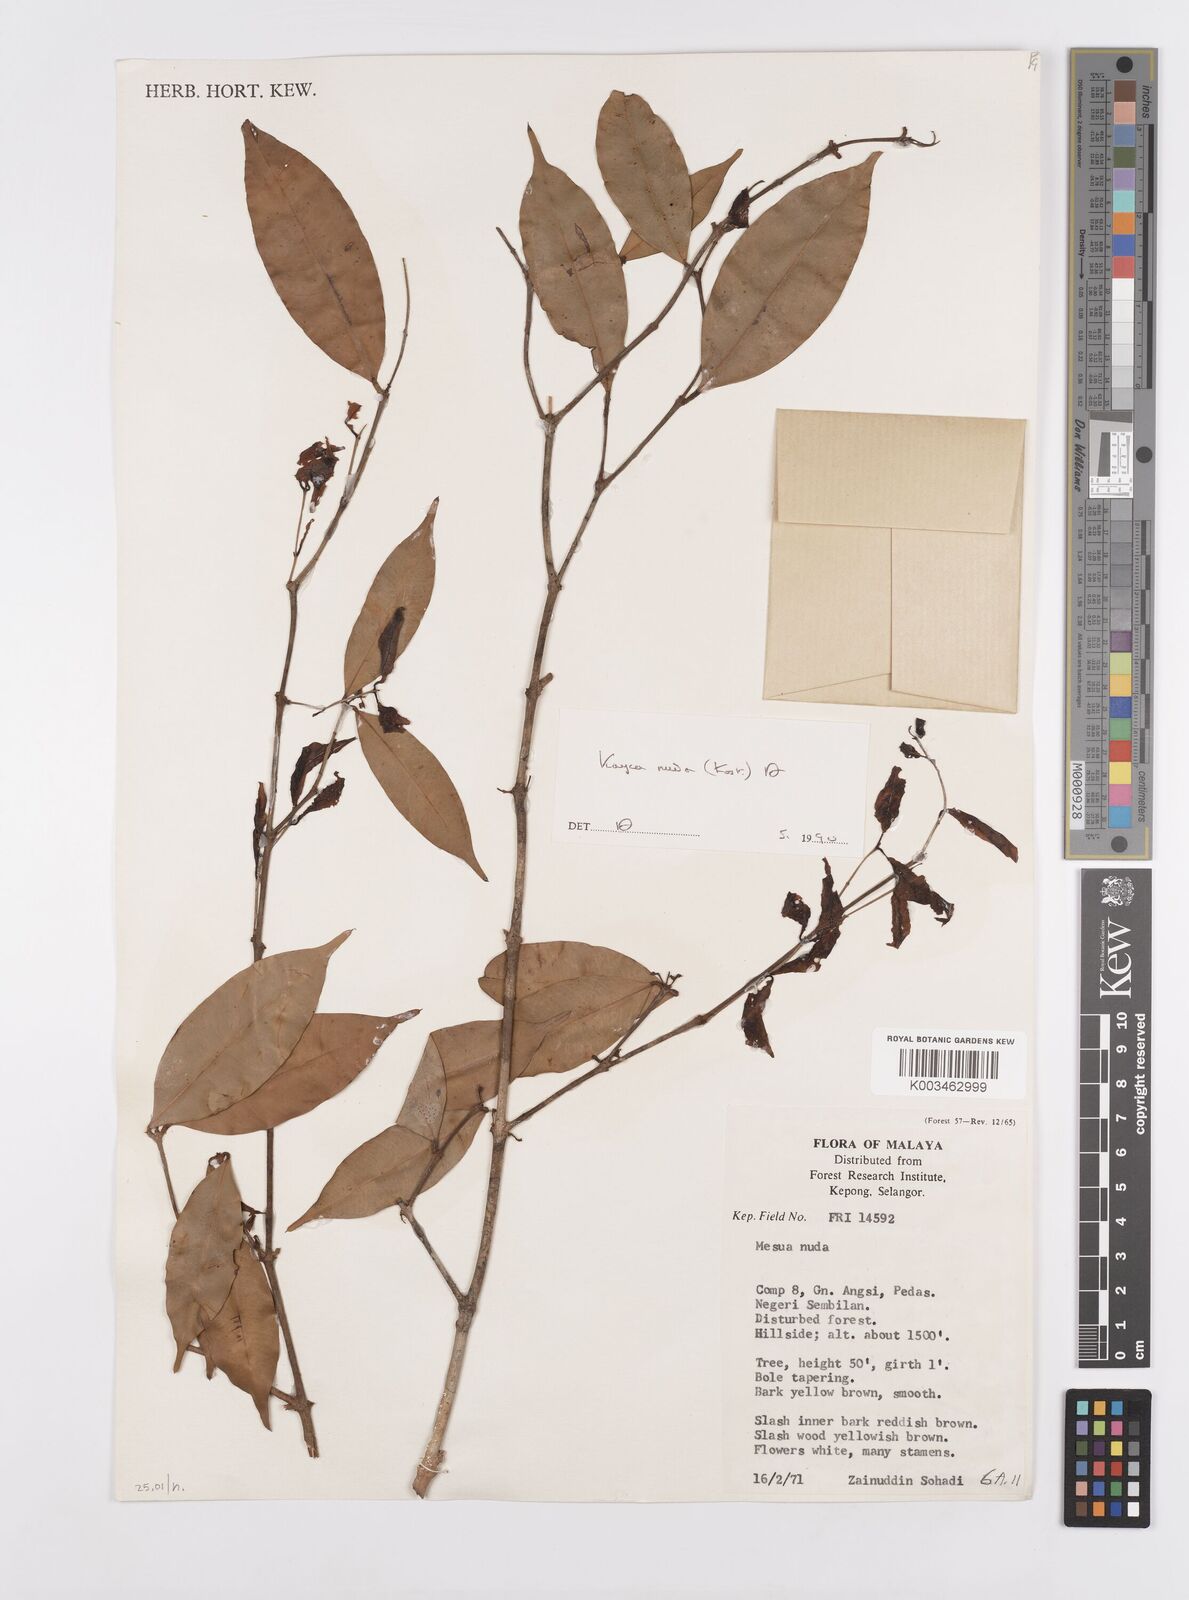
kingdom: Plantae
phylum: Tracheophyta
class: Magnoliopsida
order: Malpighiales
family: Calophyllaceae
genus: Kayea
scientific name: Kayea
